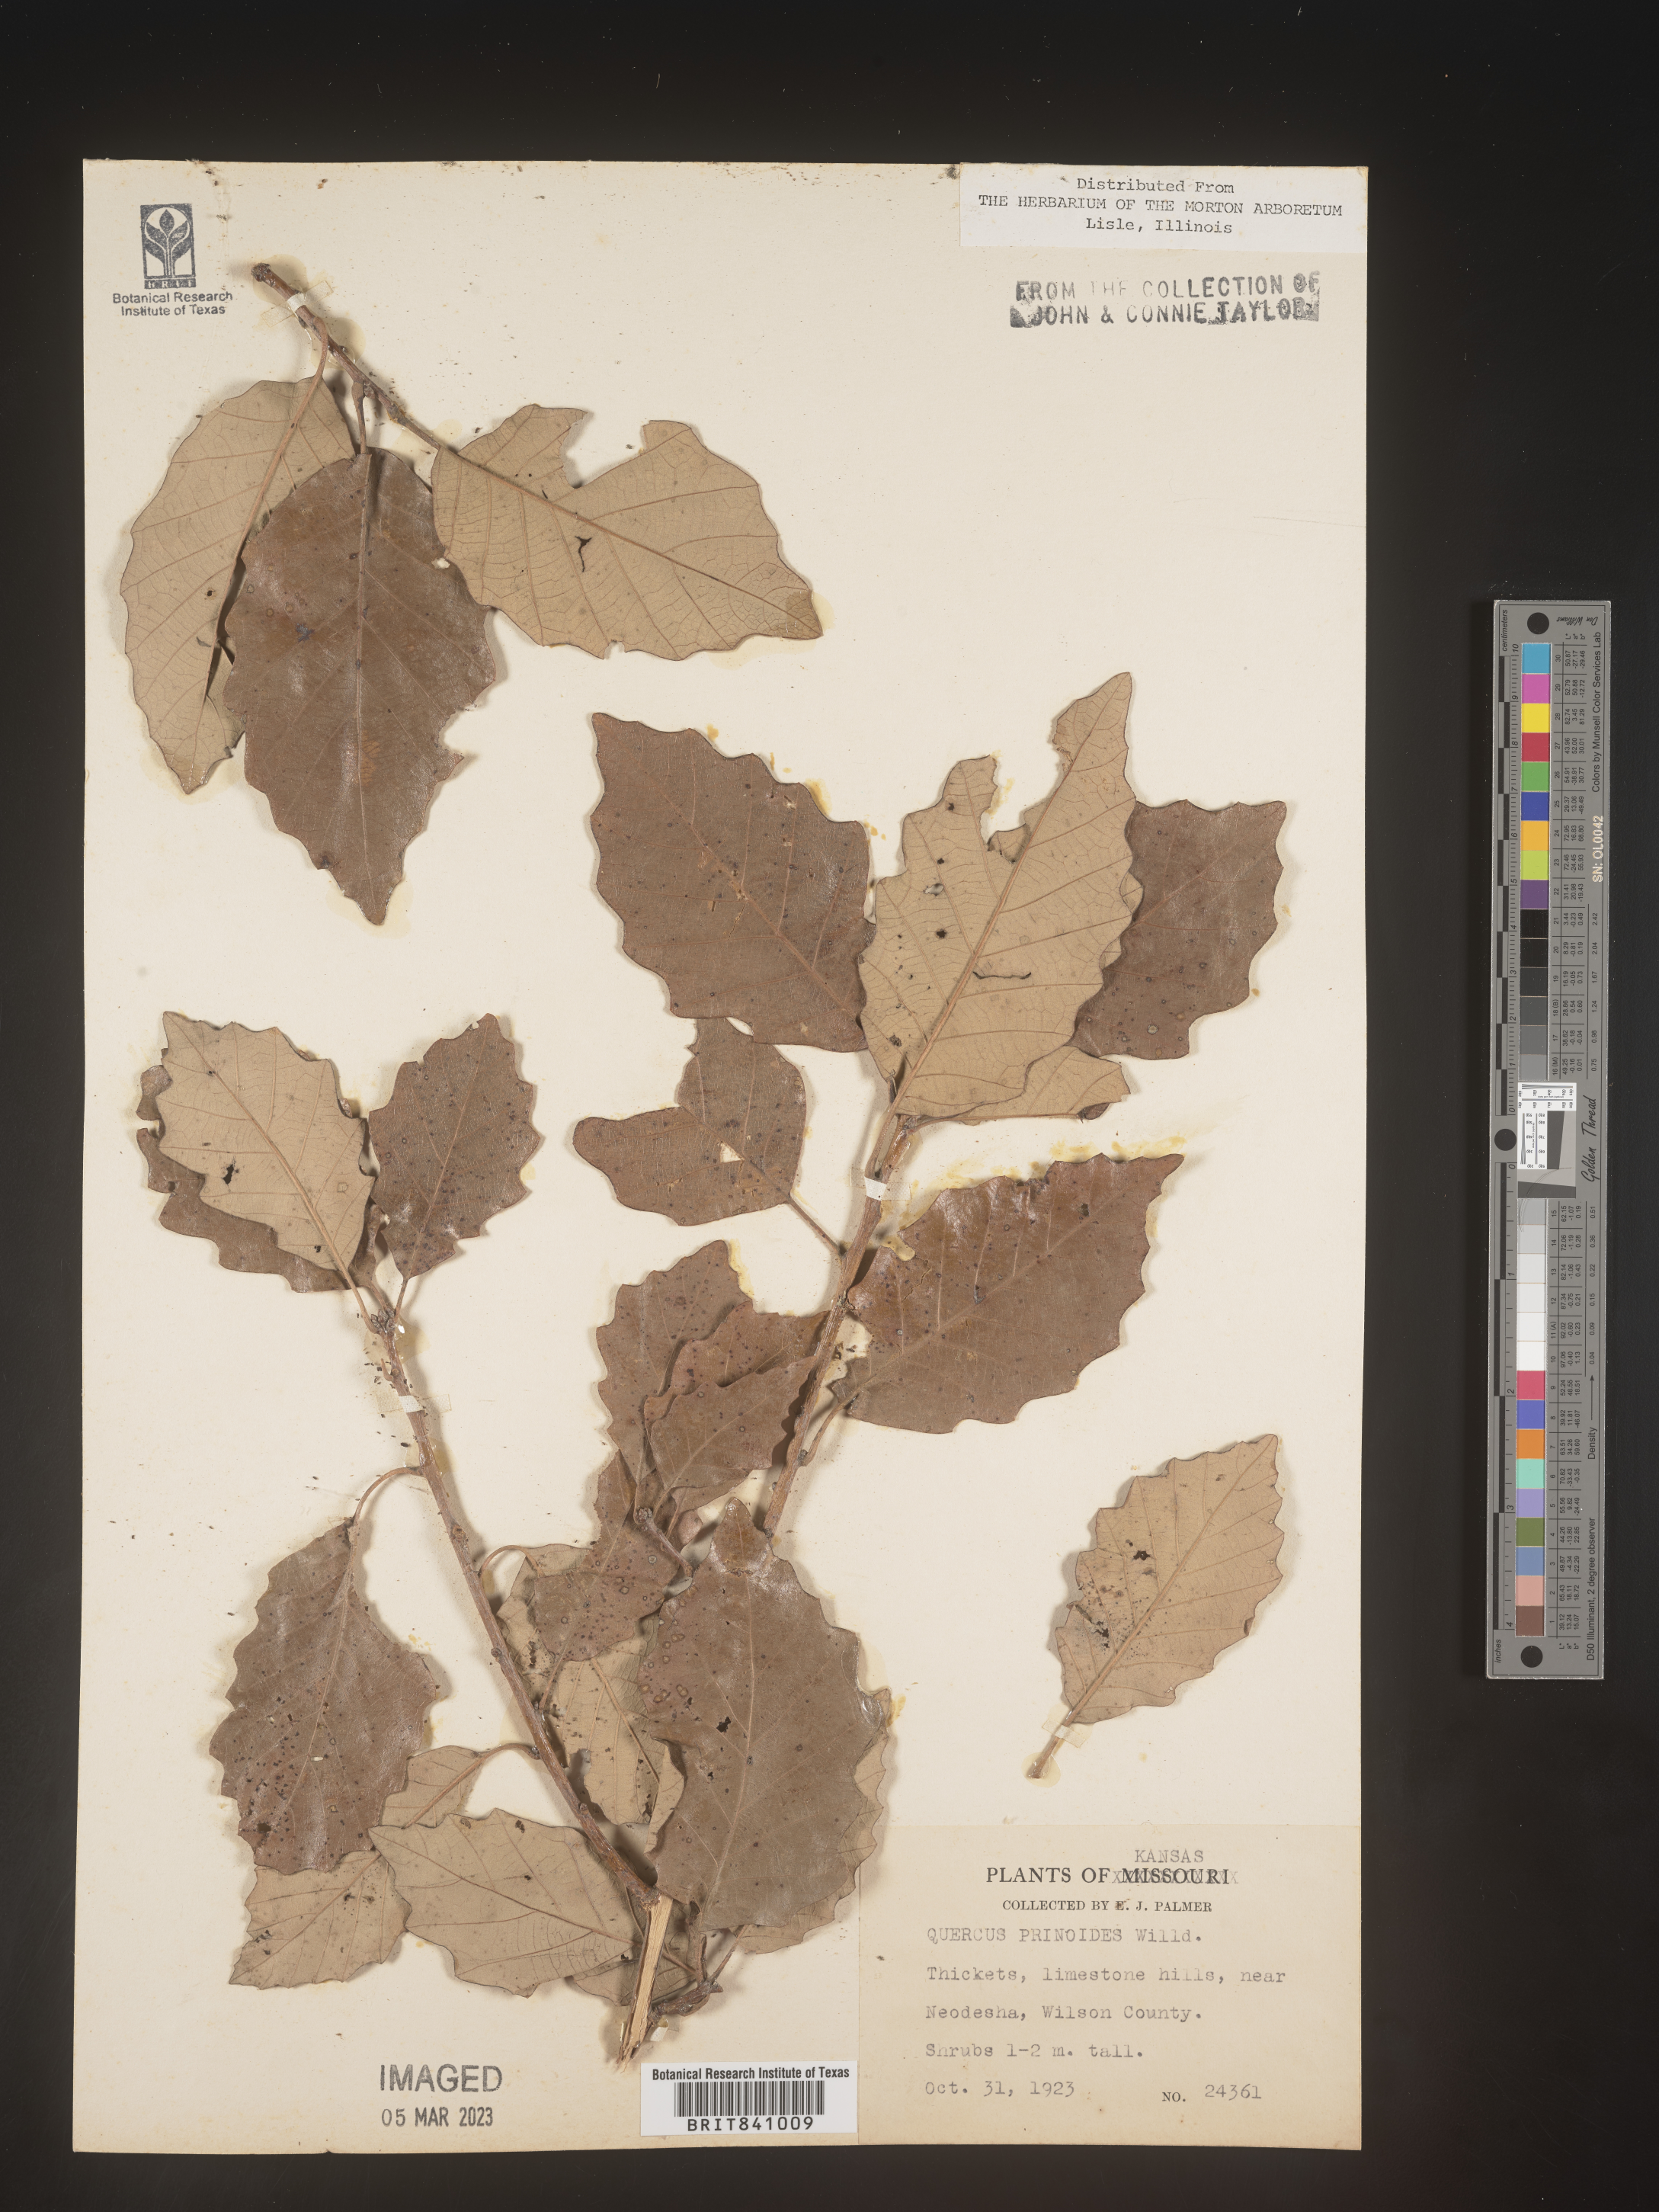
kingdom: Plantae
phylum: Tracheophyta
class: Magnoliopsida
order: Fagales
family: Fagaceae
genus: Quercus
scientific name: Quercus prinoides
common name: Dwarf chinkapin oak
